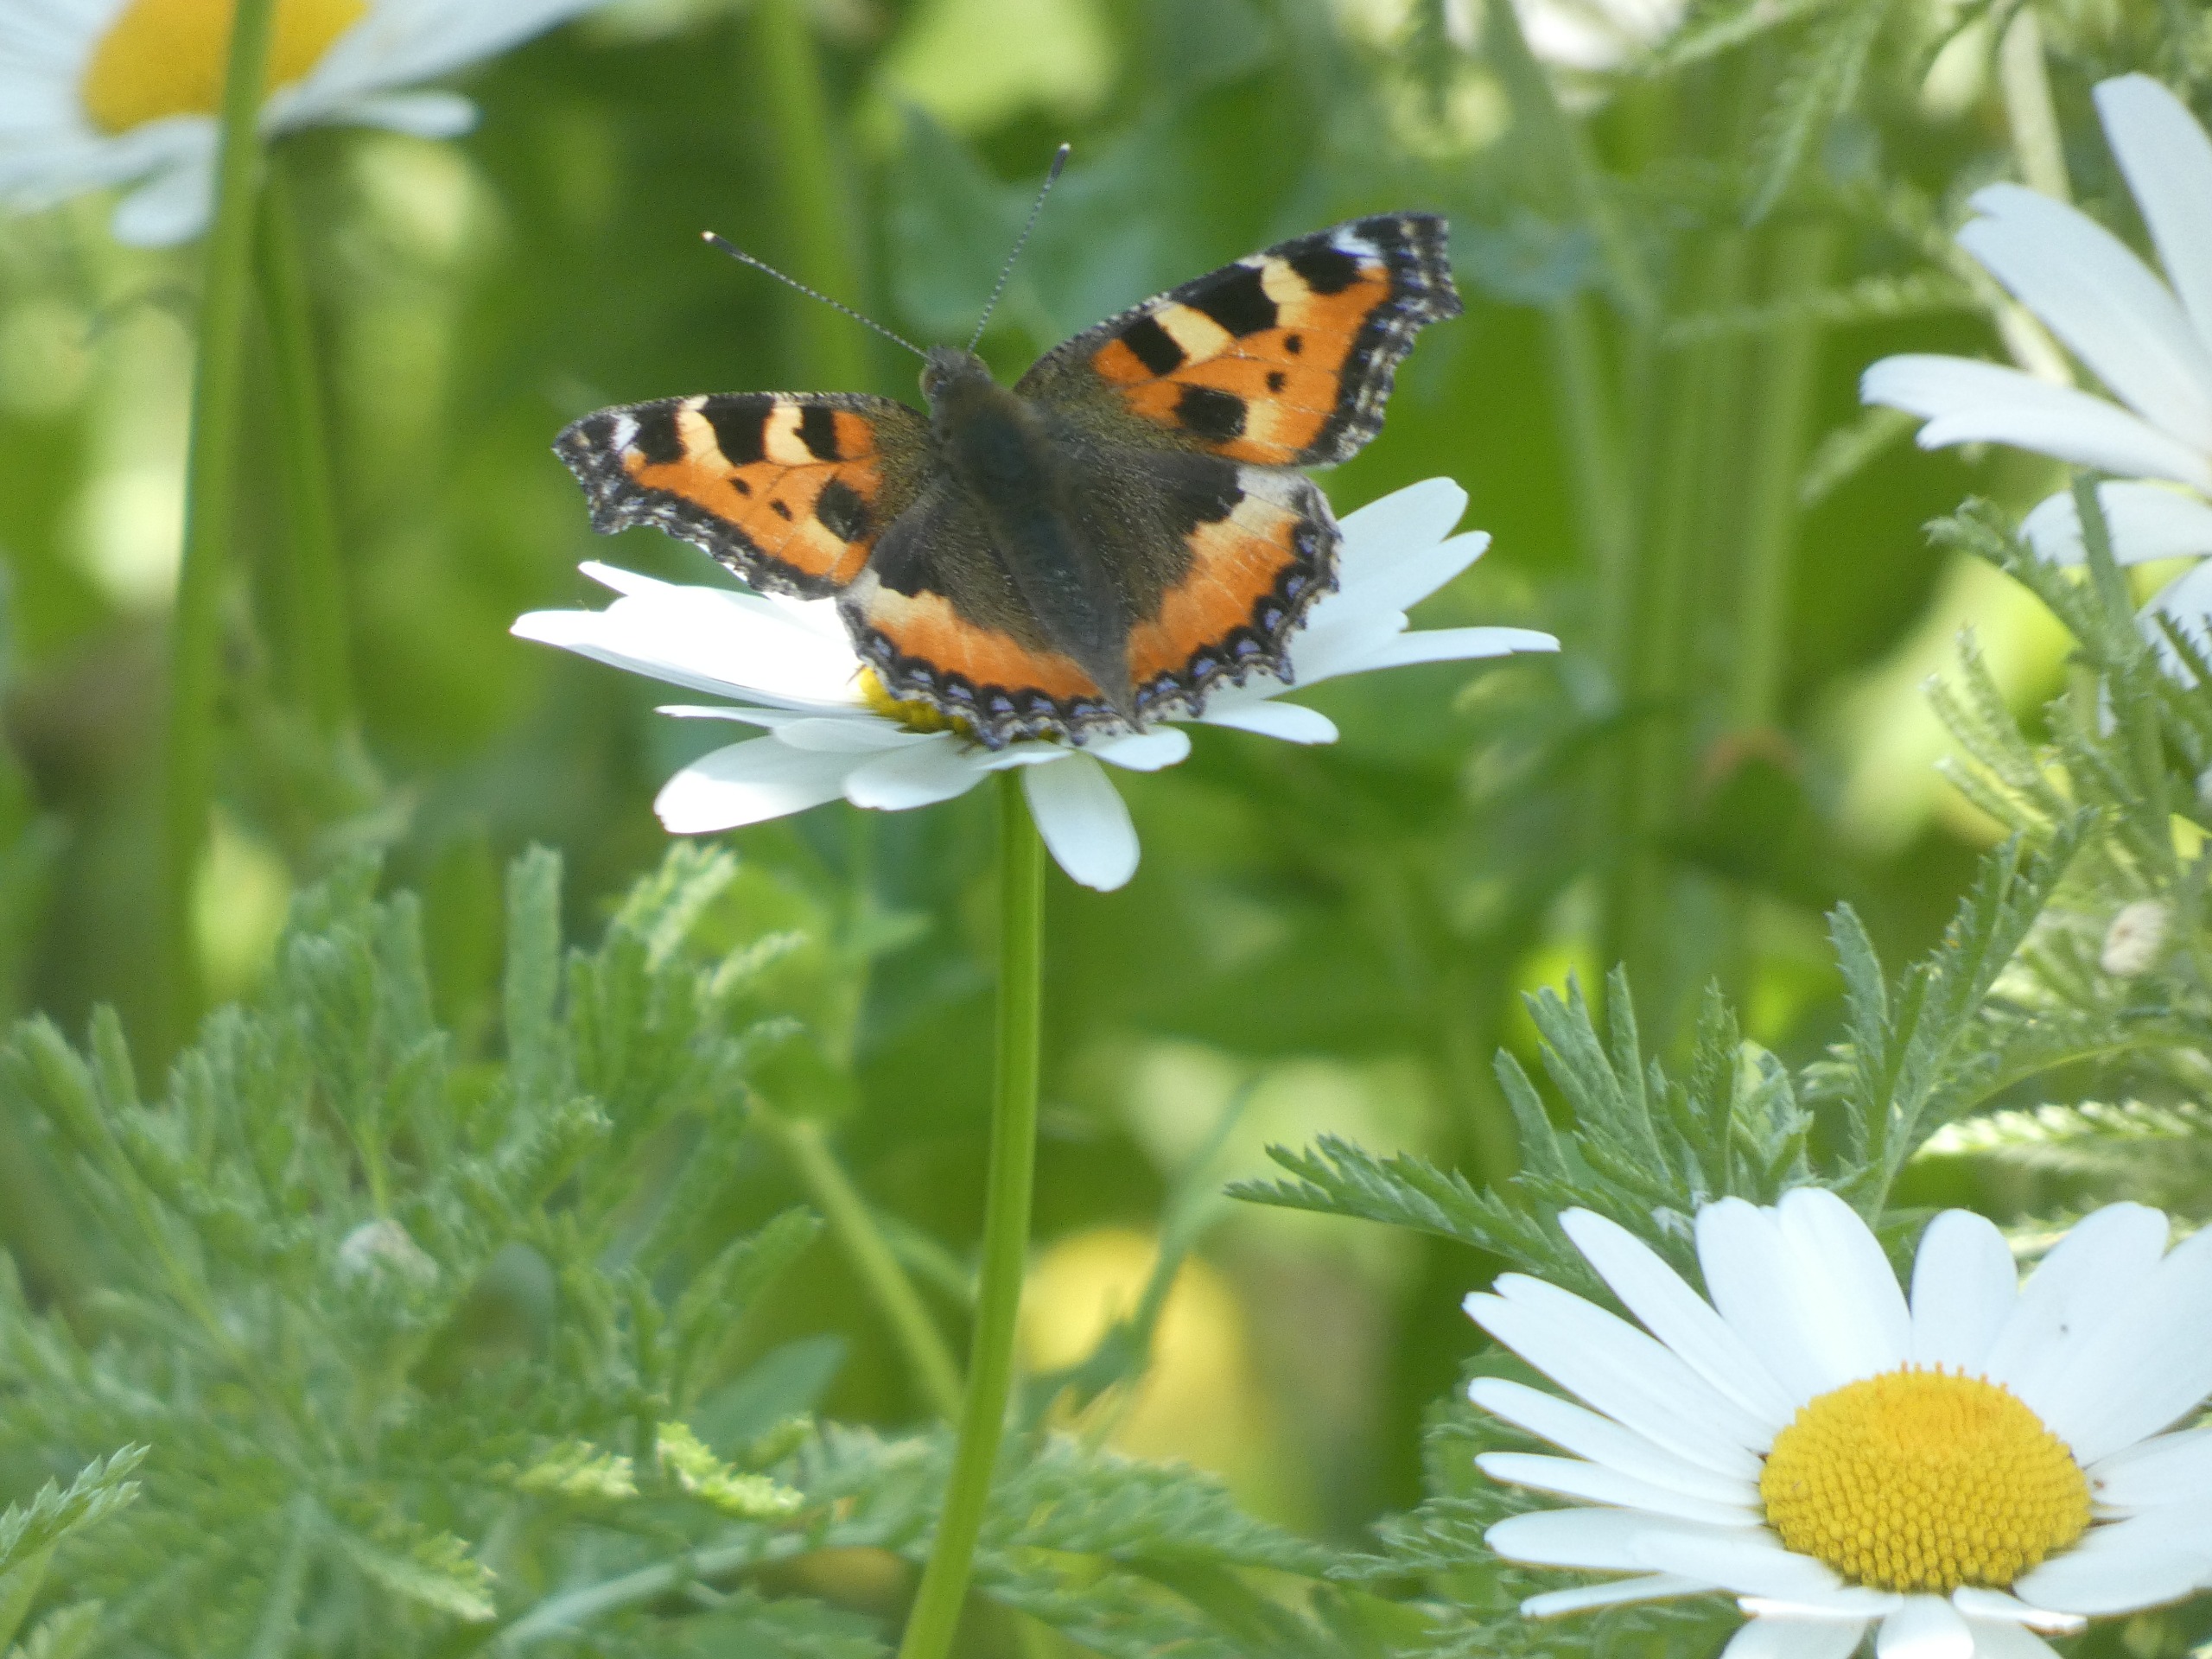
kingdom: Animalia
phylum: Arthropoda
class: Insecta
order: Lepidoptera
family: Nymphalidae
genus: Aglais
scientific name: Aglais urticae
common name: Nældens takvinge
